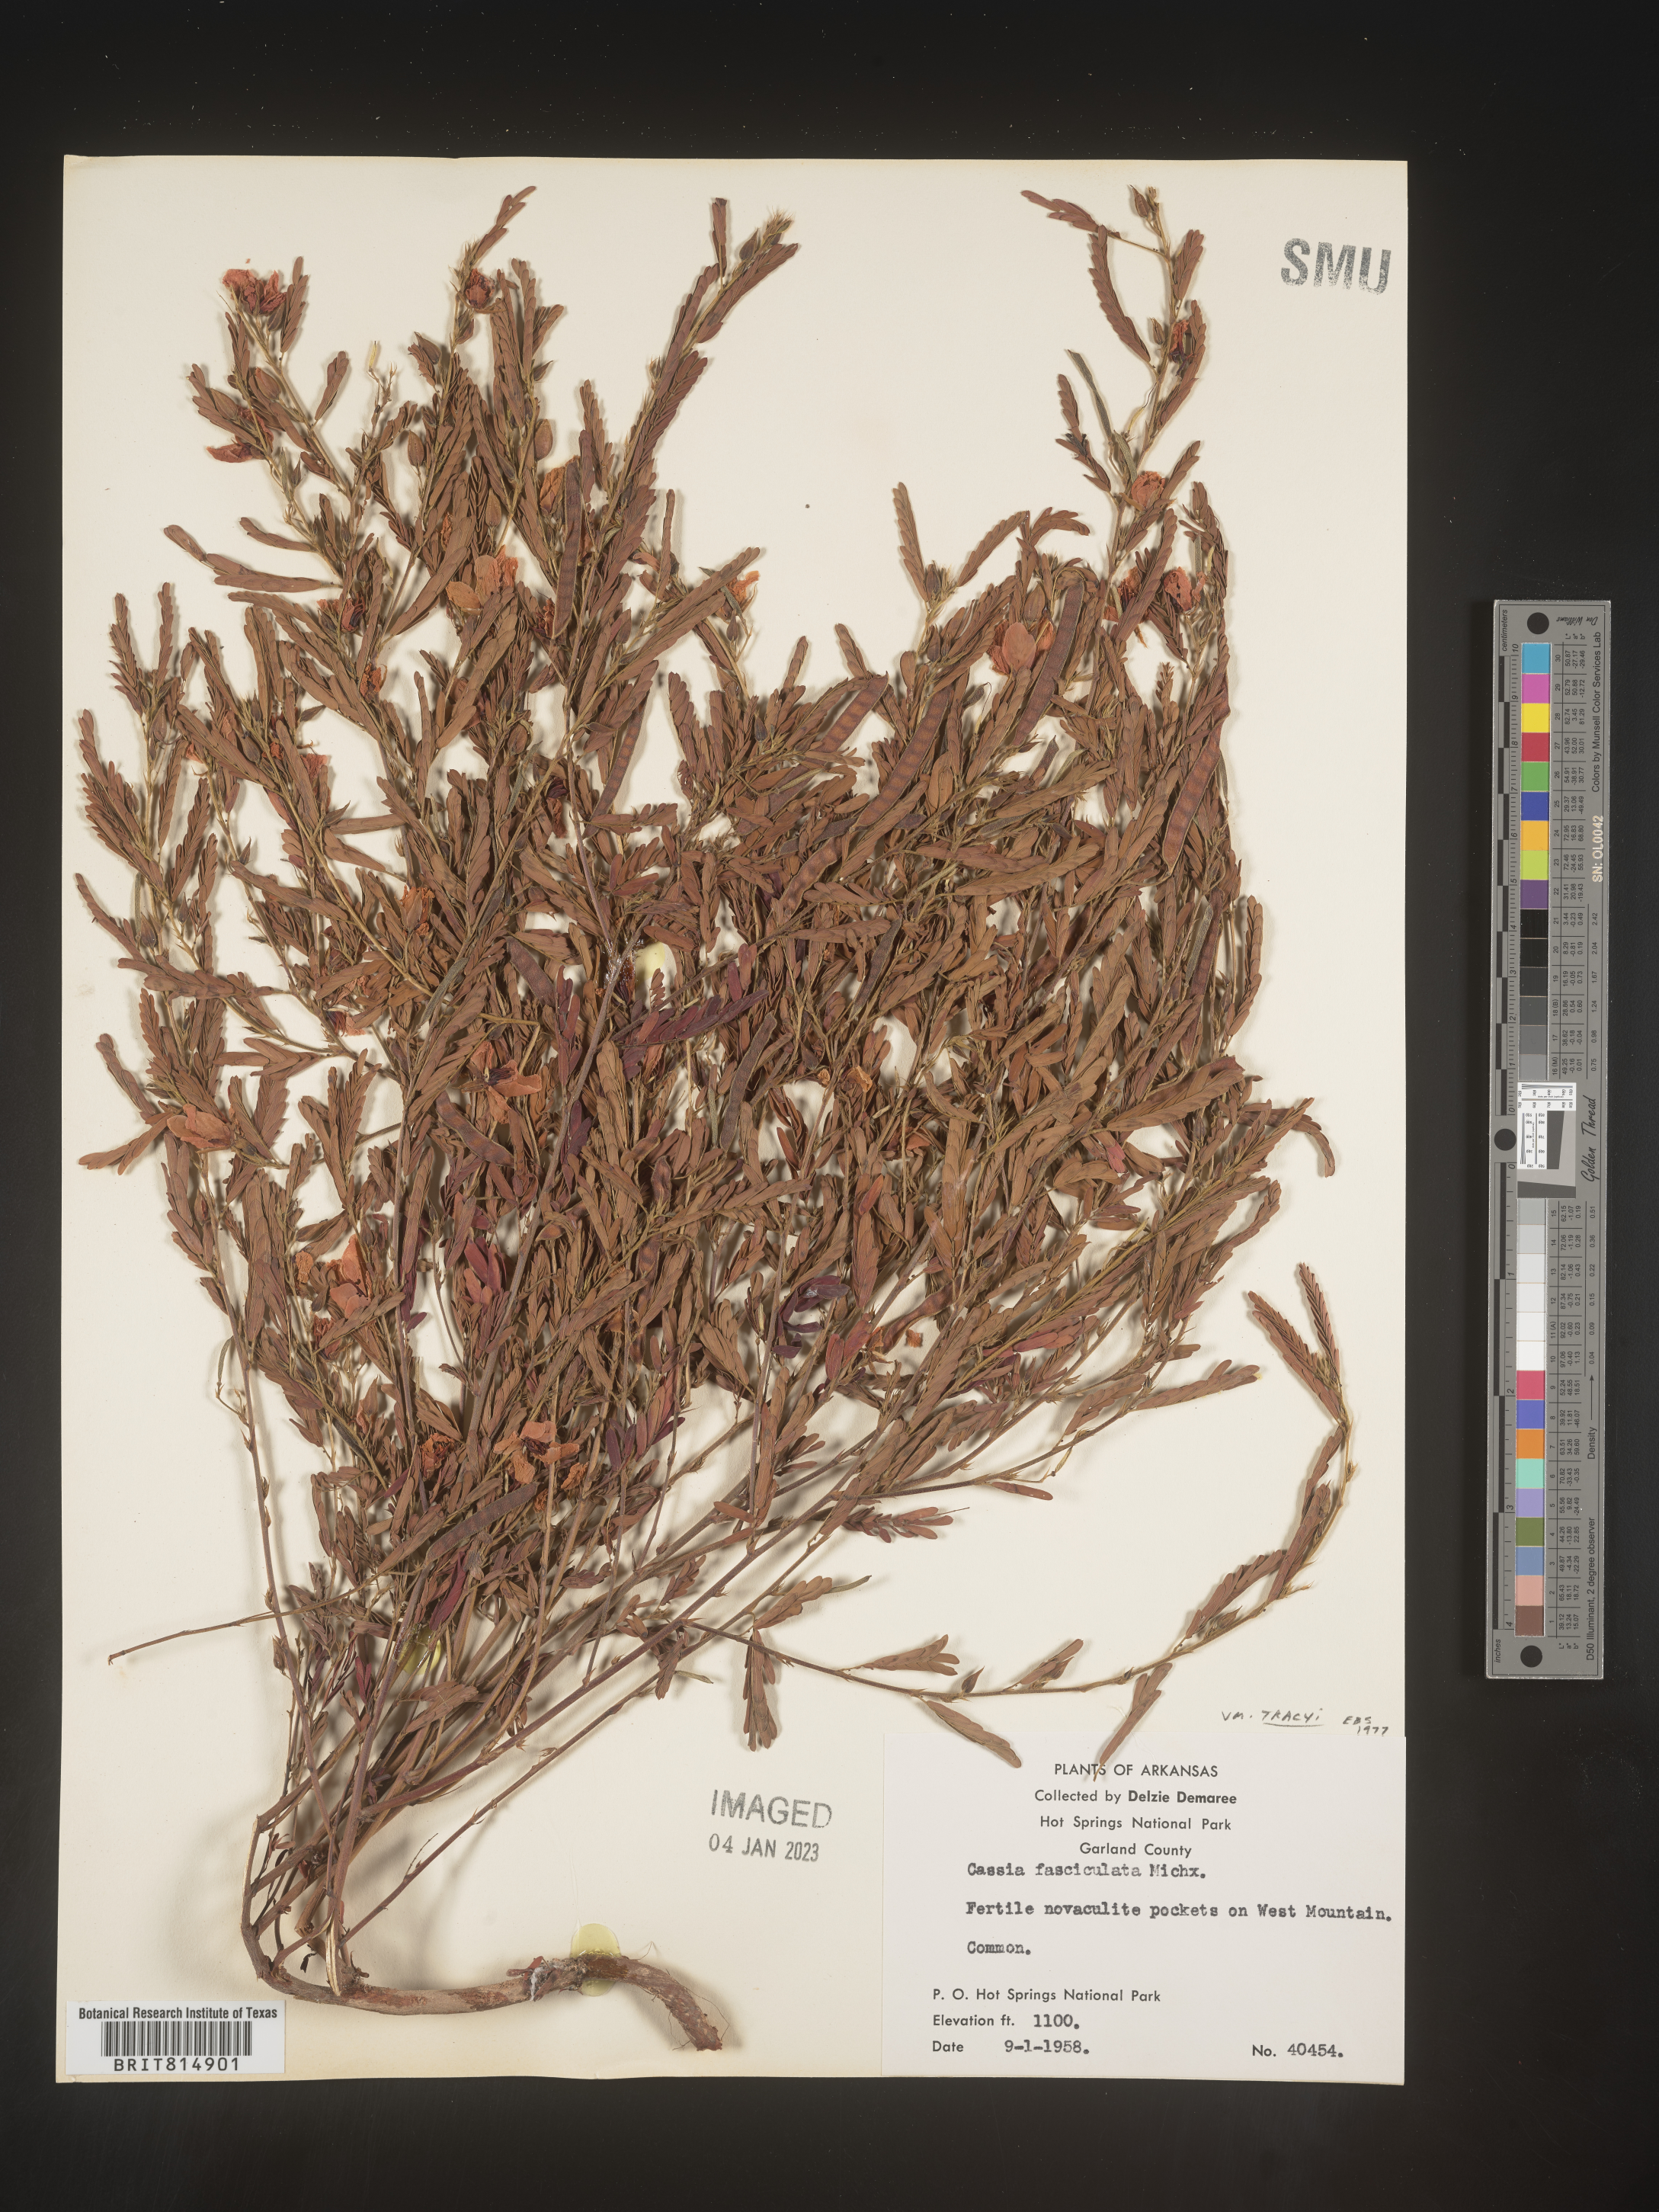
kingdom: Plantae
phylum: Tracheophyta
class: Magnoliopsida
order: Fabales
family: Fabaceae
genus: Chamaecrista
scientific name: Chamaecrista fasciculata
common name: Golden cassia
